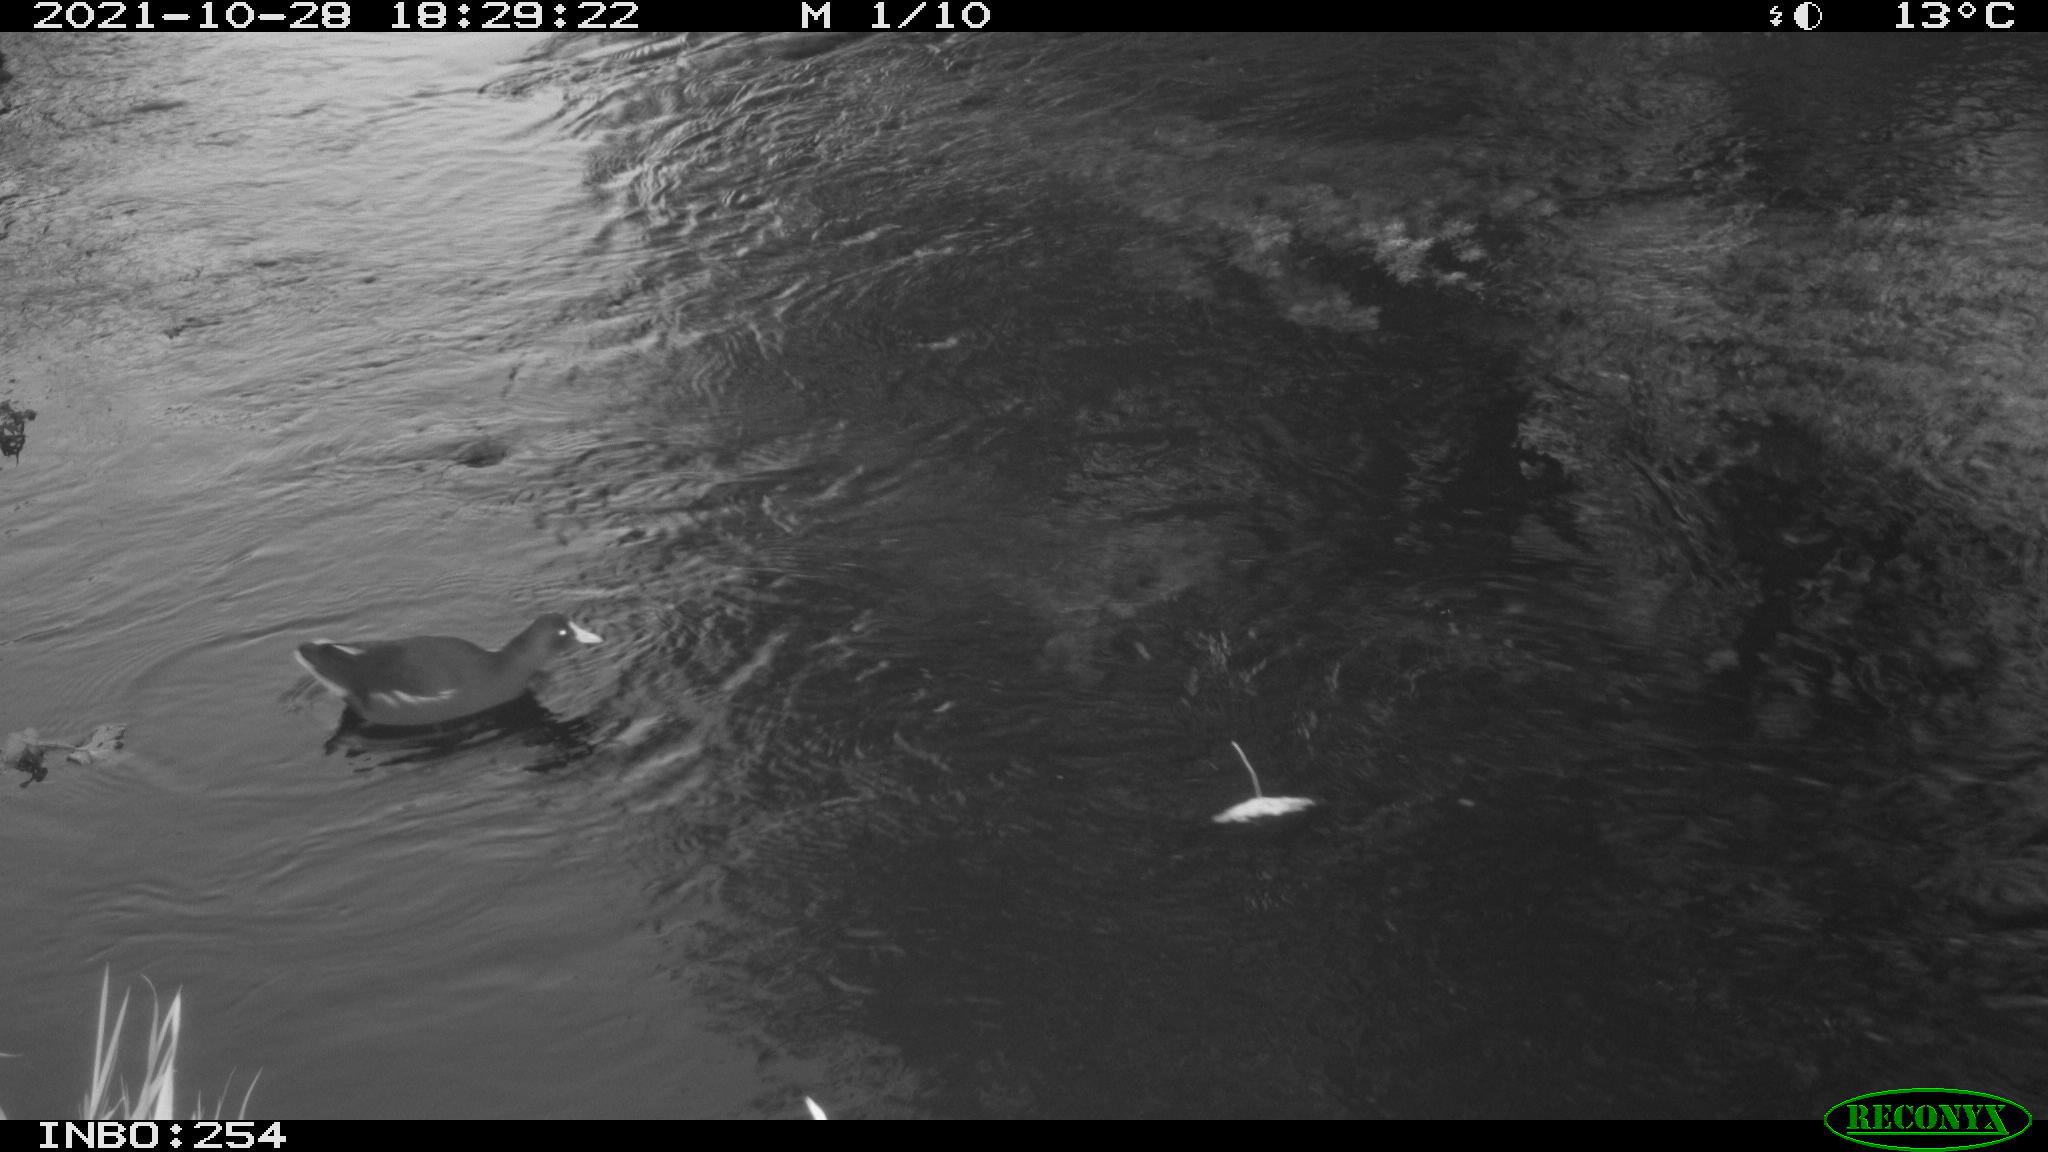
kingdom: Animalia
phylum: Chordata
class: Aves
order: Gruiformes
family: Rallidae
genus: Gallinula
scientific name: Gallinula chloropus
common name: Common moorhen
